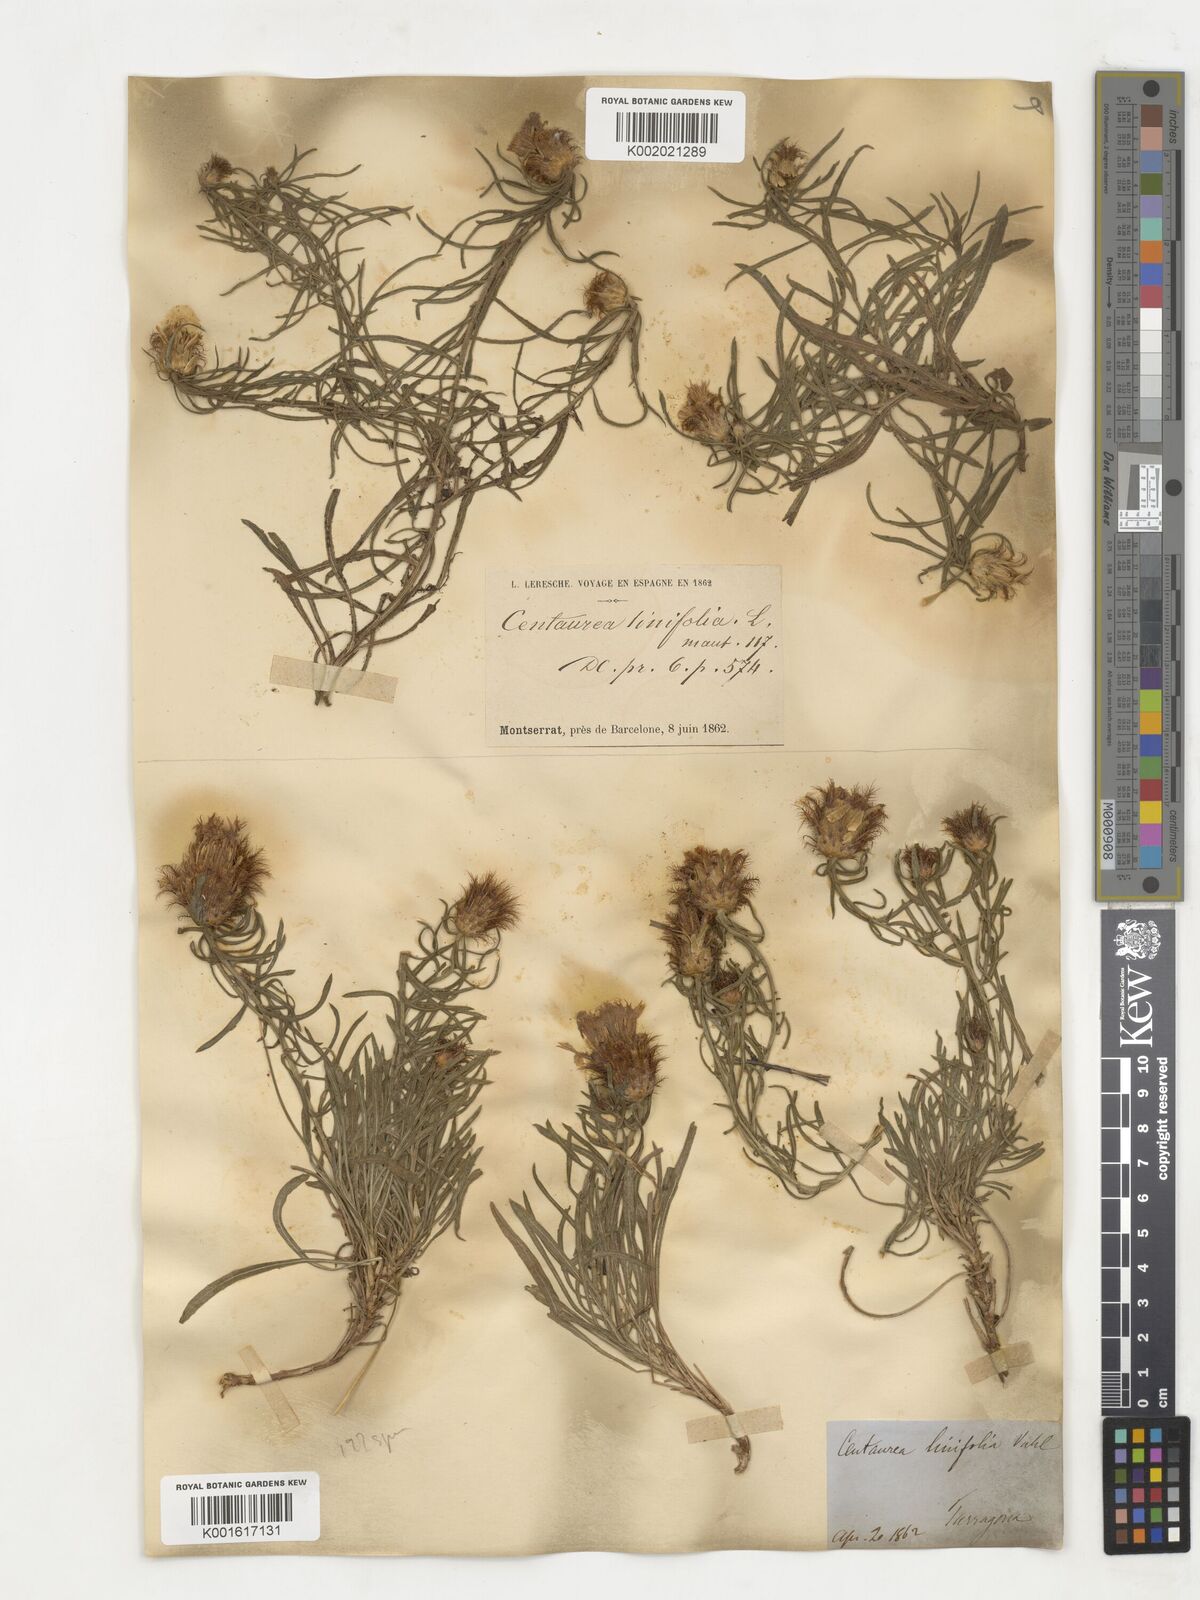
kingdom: Plantae
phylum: Tracheophyta
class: Magnoliopsida
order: Asterales
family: Asteraceae
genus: Centaurea
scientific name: Centaurea linifolia
